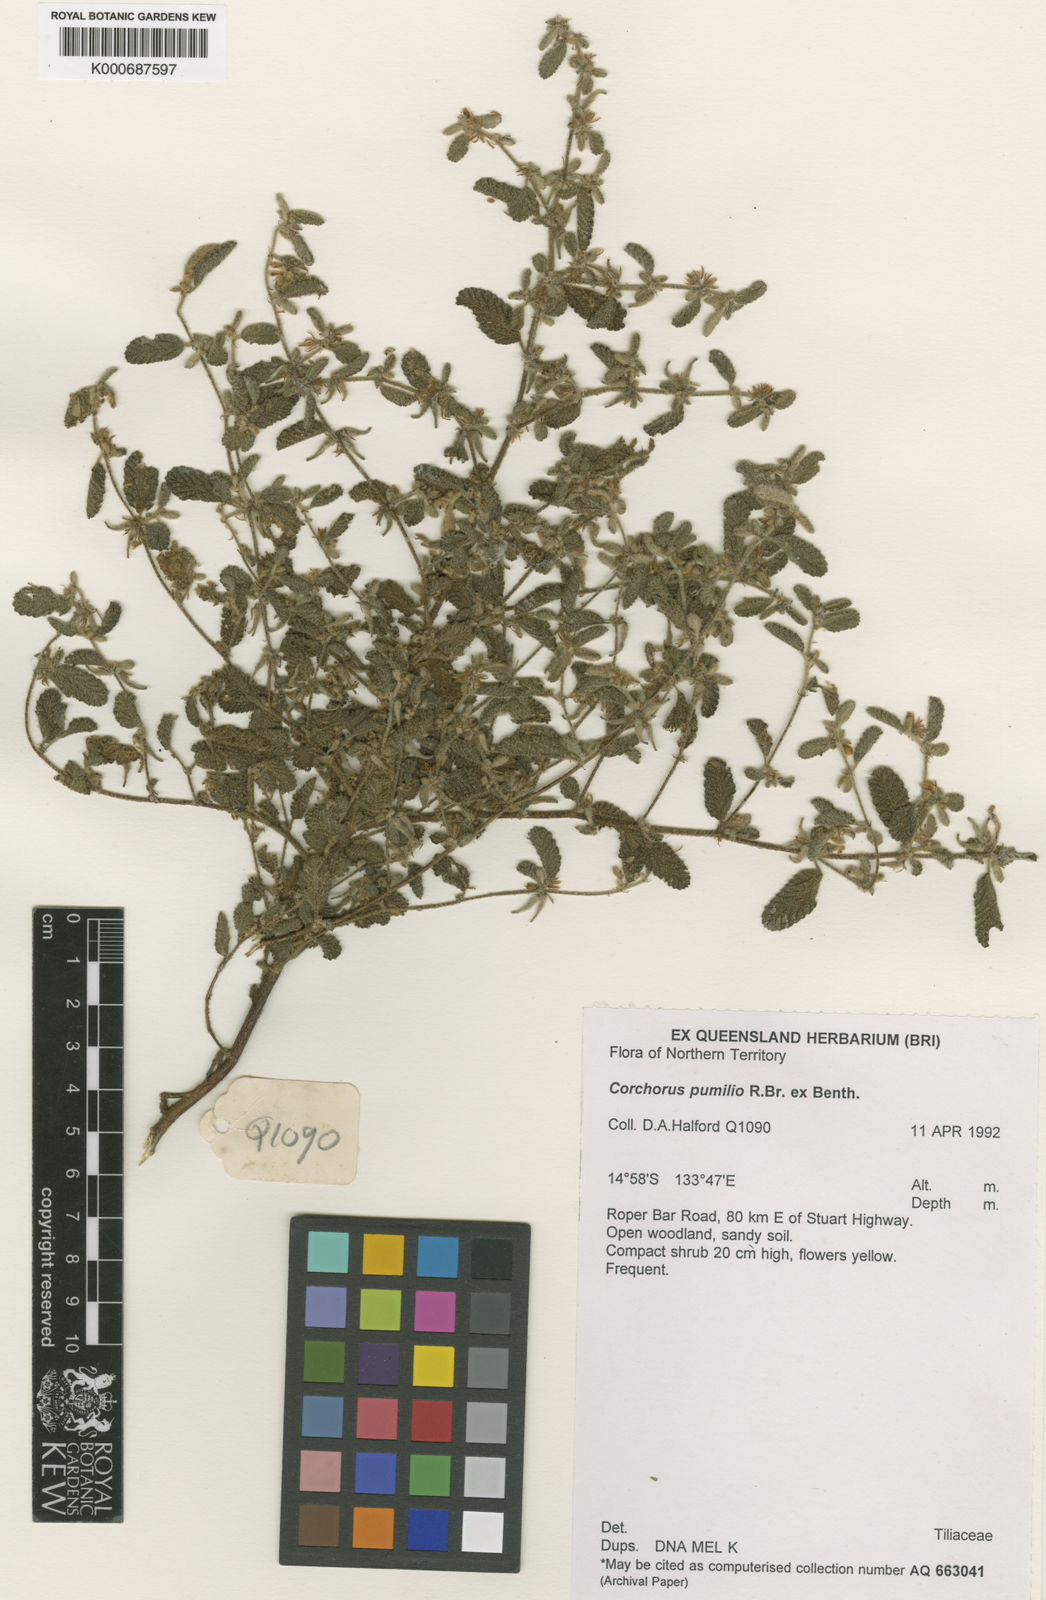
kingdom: Plantae
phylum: Tracheophyta
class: Magnoliopsida
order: Malvales
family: Malvaceae
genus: Corchorus
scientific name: Corchorus pumilio
